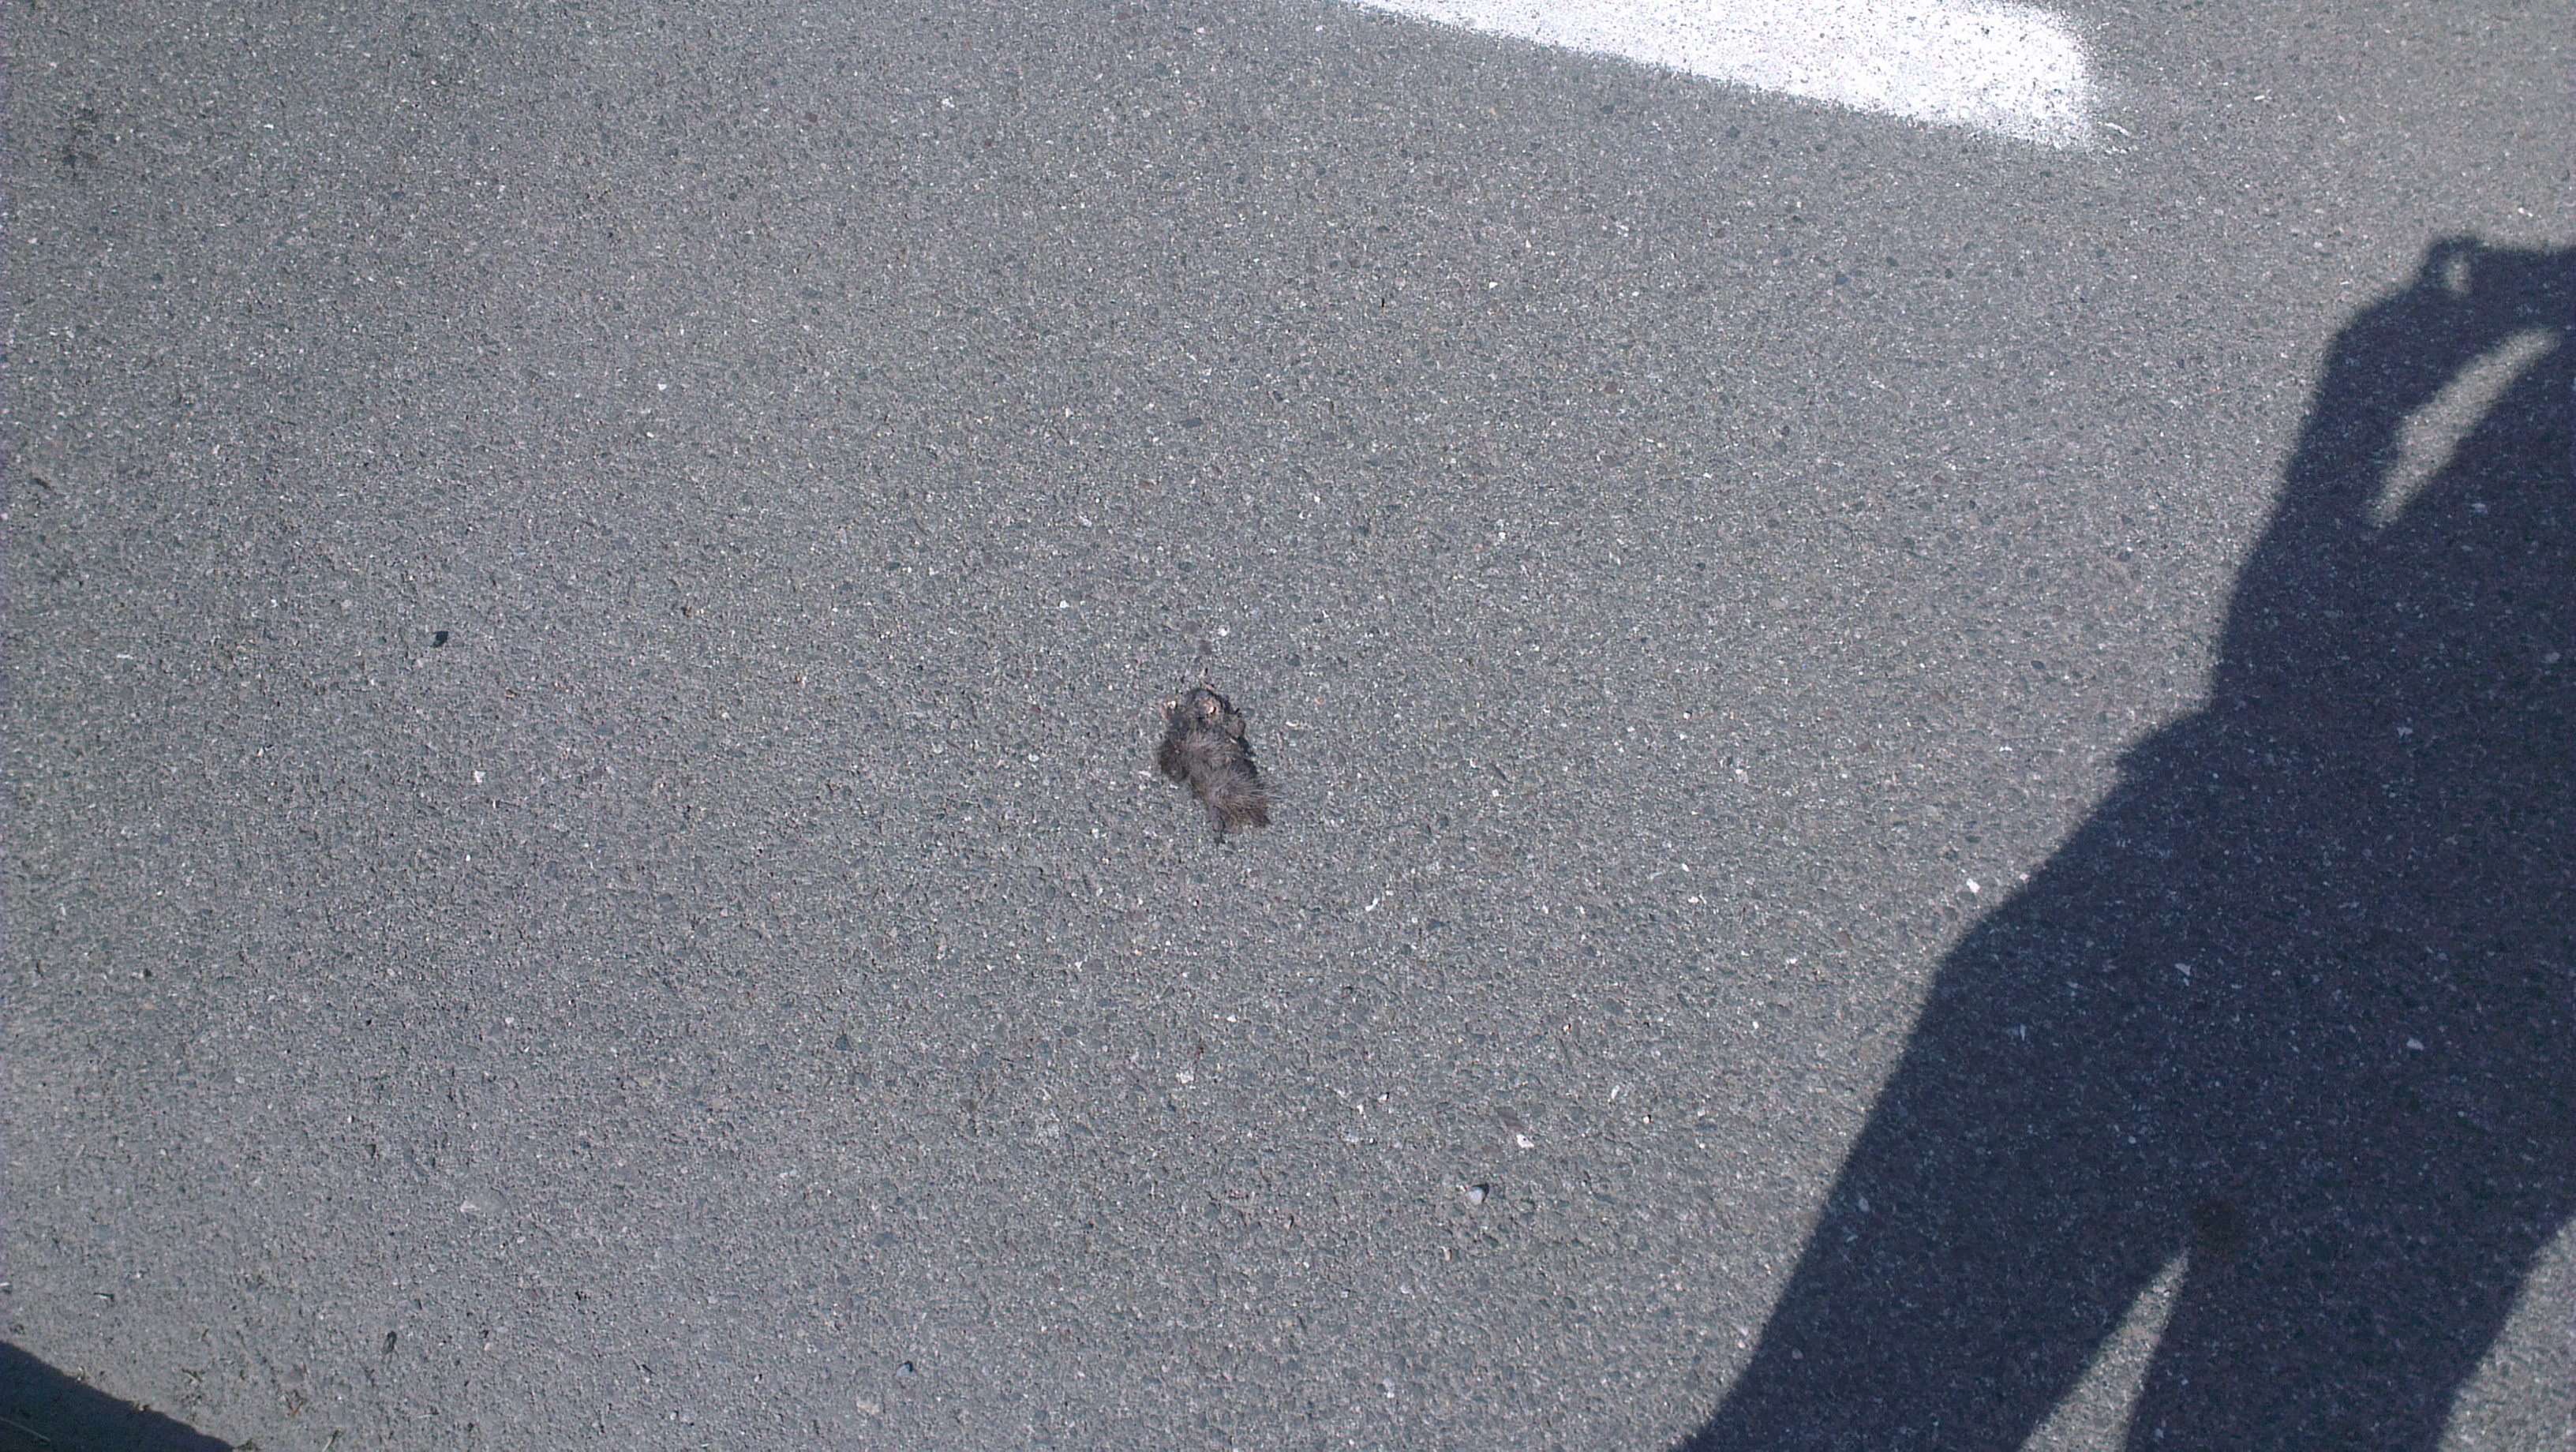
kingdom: Animalia
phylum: Chordata
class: Mammalia
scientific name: Mammalia
